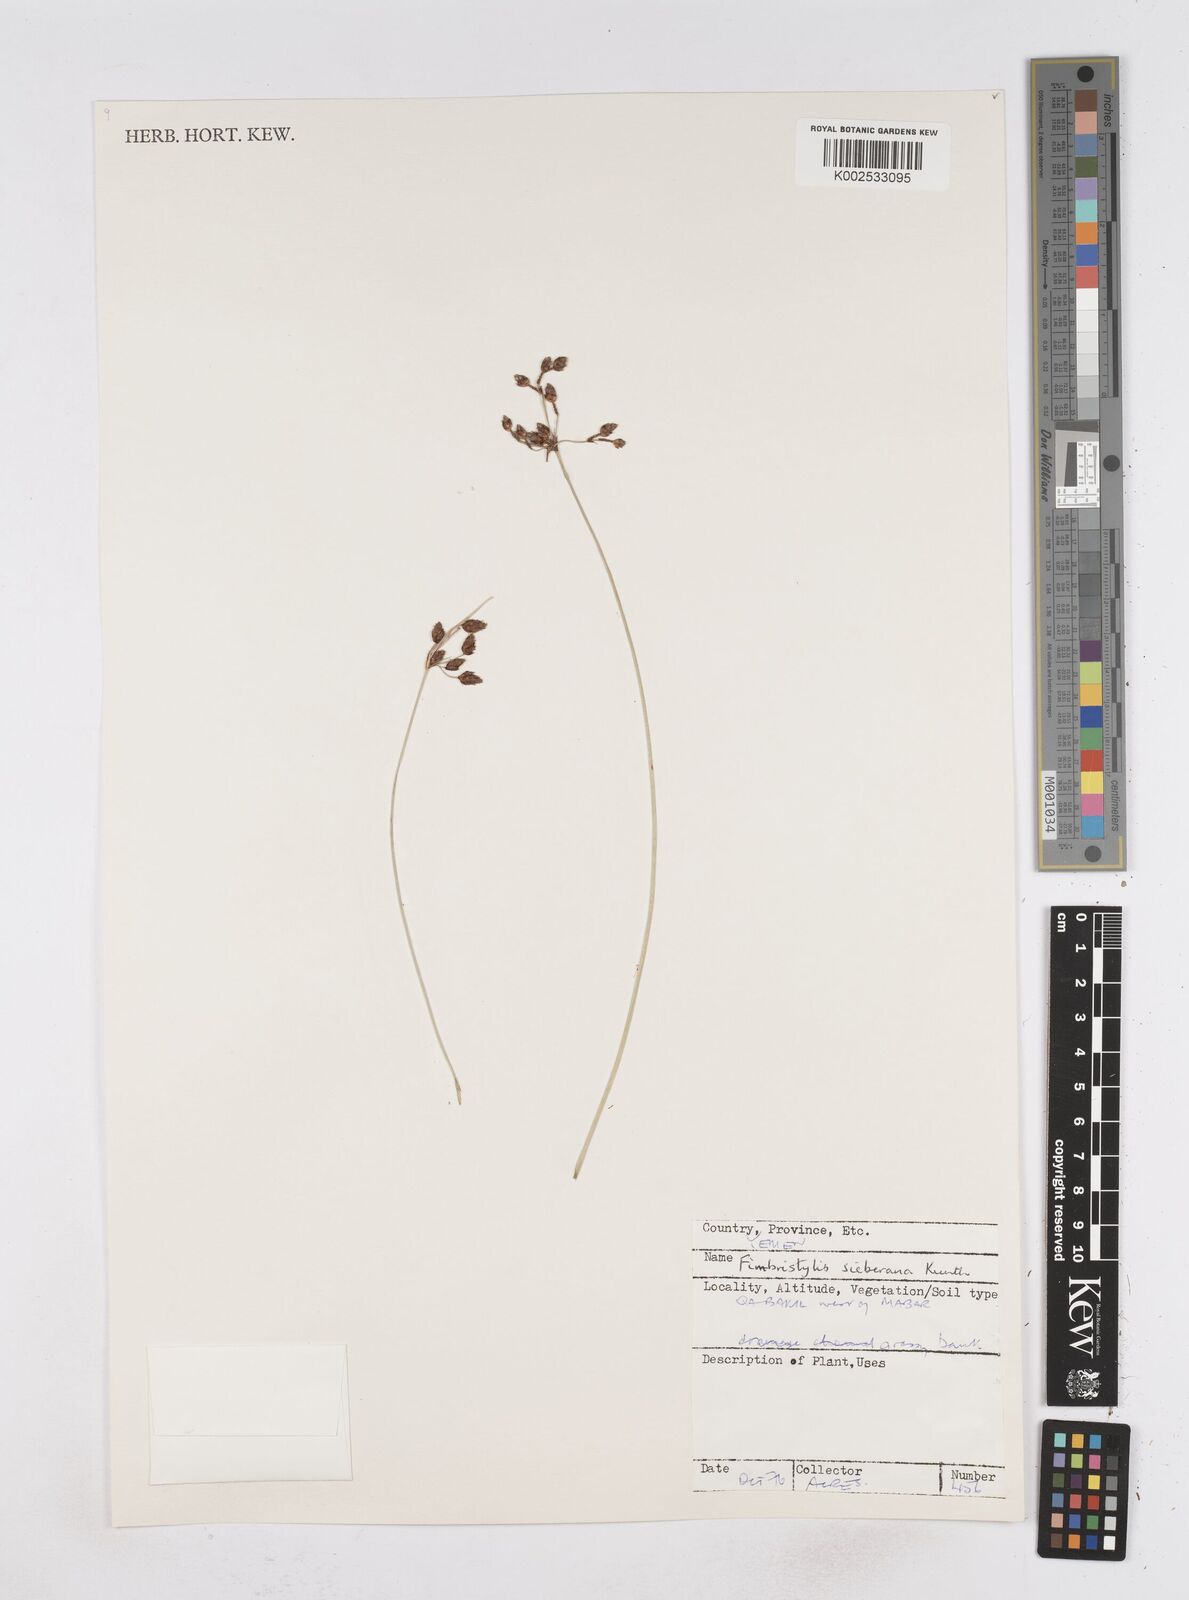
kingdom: Plantae
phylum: Tracheophyta
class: Liliopsida
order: Poales
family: Cyperaceae
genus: Fimbristylis
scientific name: Fimbristylis ferruginea
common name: West indian fimbry
